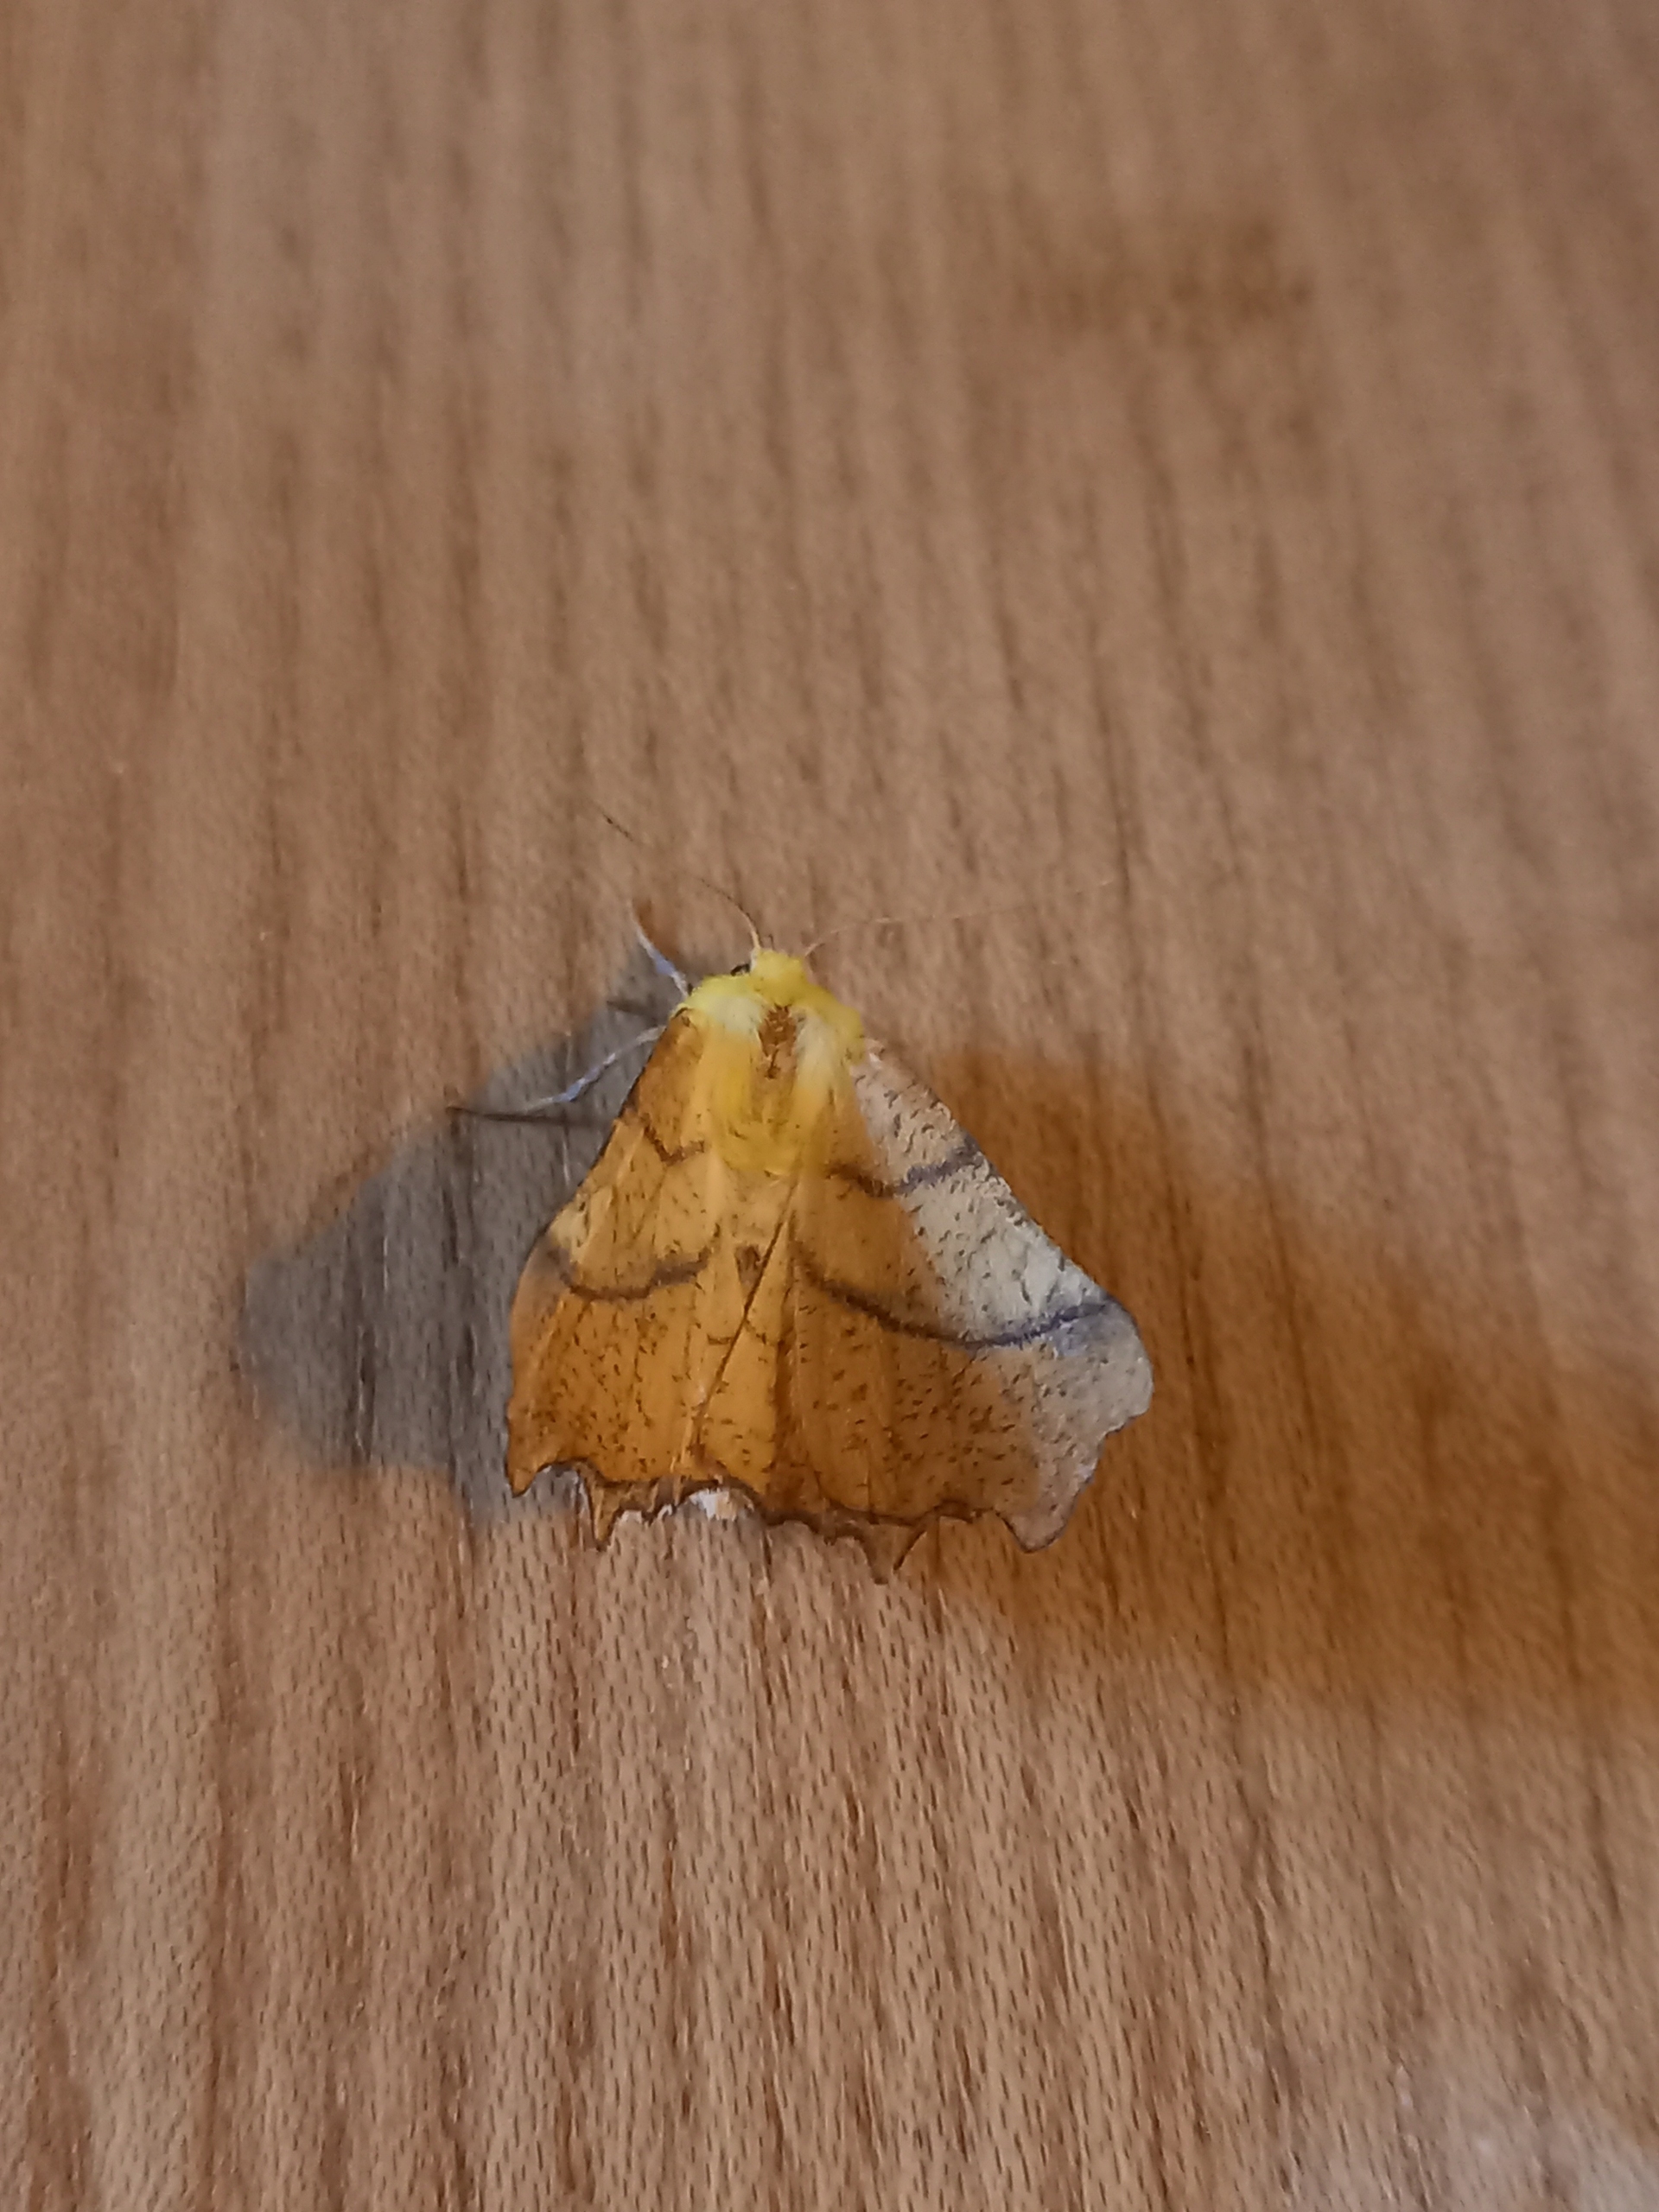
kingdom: Animalia
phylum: Arthropoda
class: Insecta
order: Lepidoptera
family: Geometridae
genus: Ennomos
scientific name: Ennomos alniaria
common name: Elle-tandmåler
